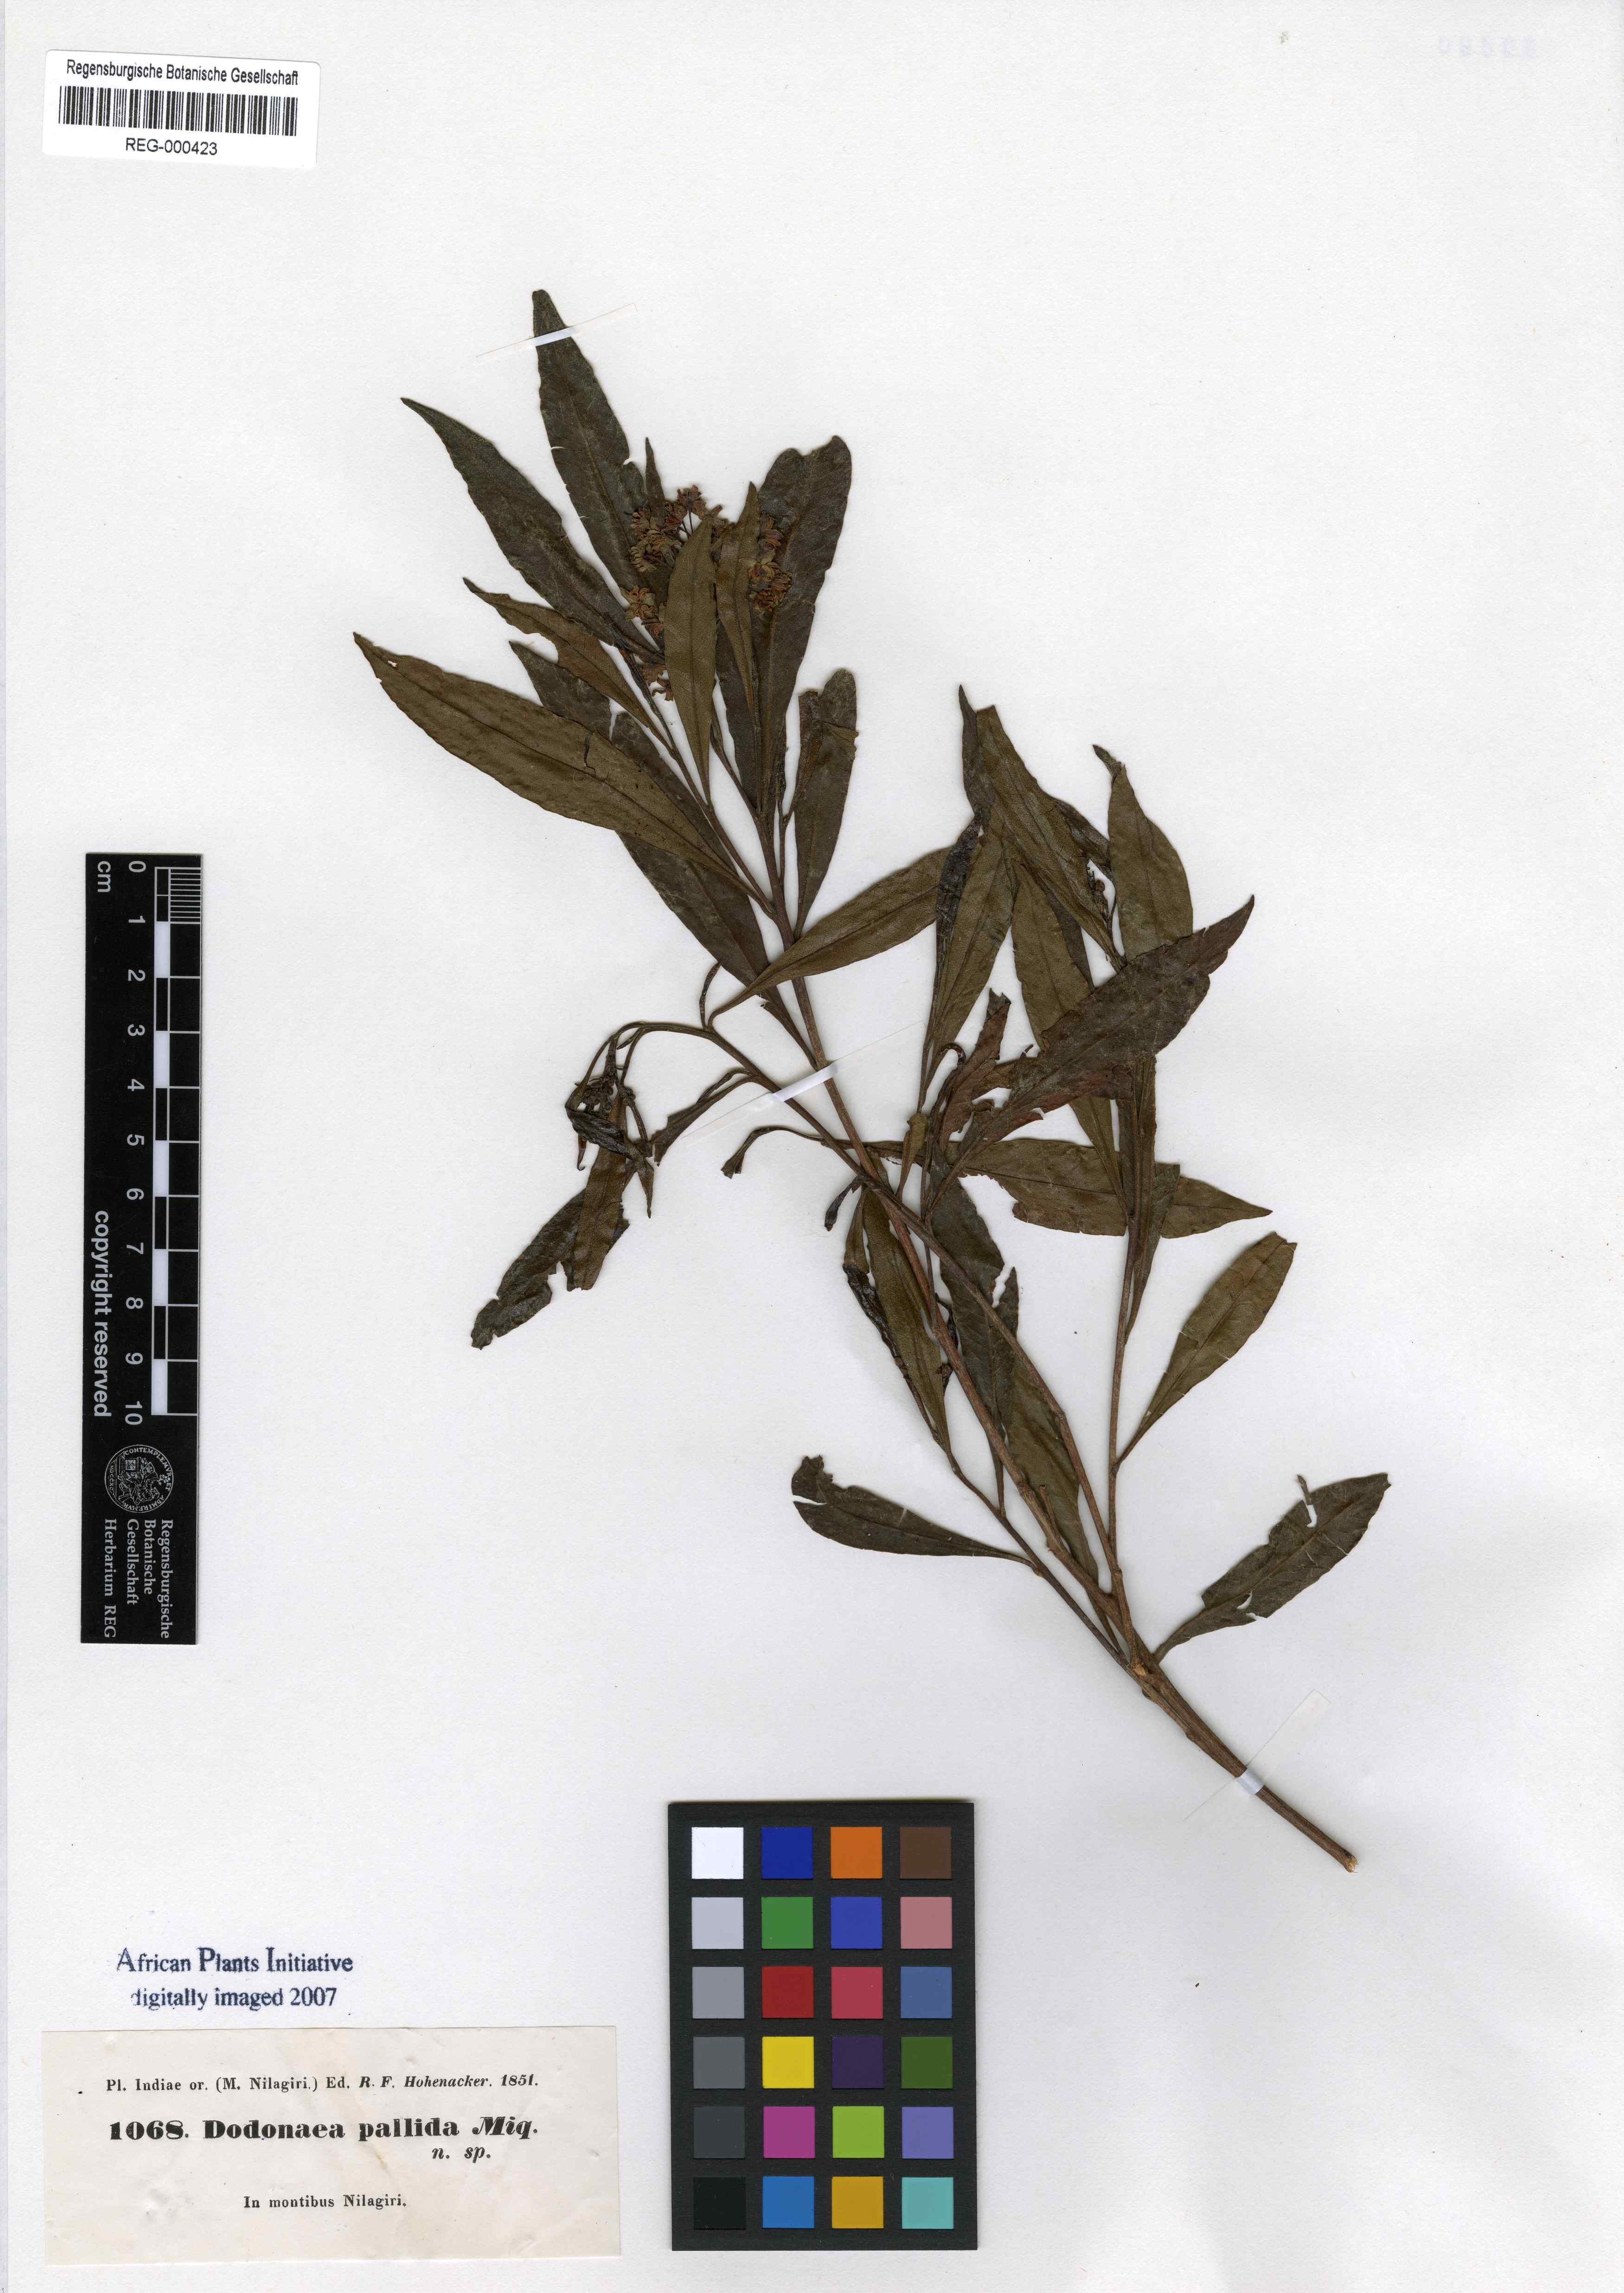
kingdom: Plantae
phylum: Tracheophyta
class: Magnoliopsida
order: Sapindales
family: Sapindaceae
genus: Dodonaea
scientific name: Dodonaea viscosa
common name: Hopbush
